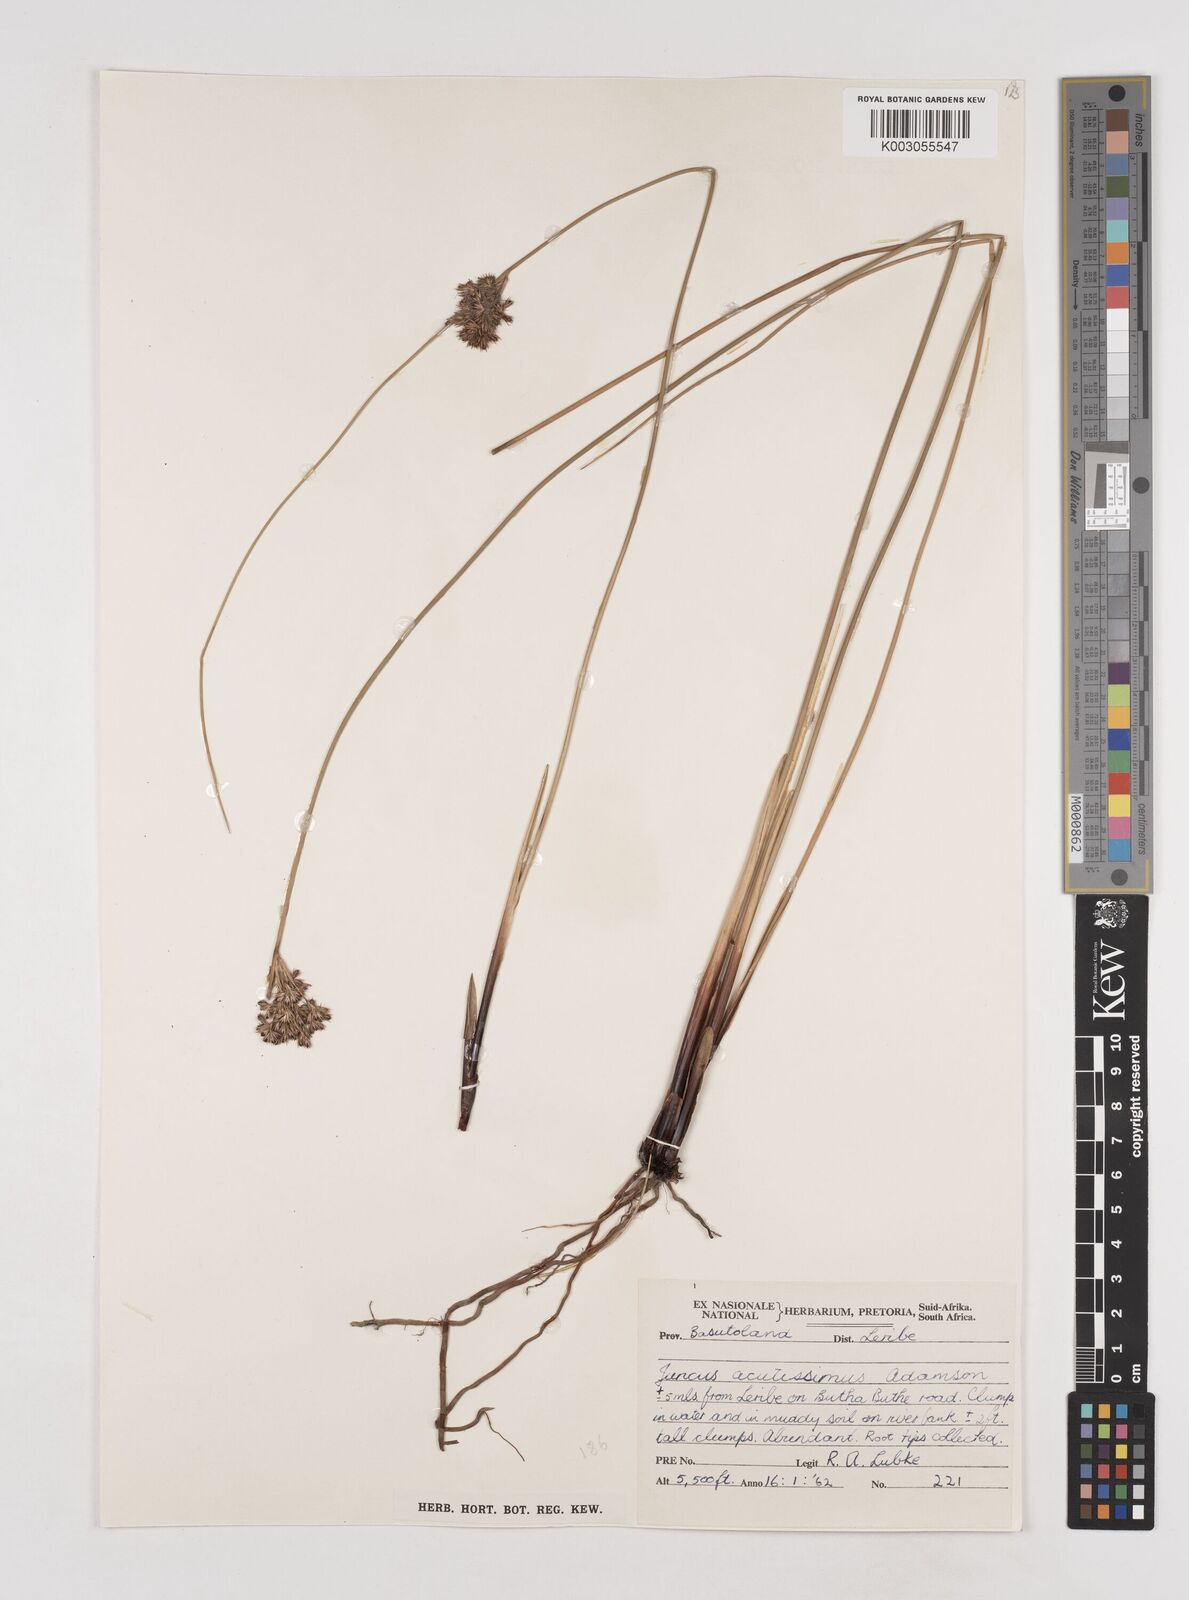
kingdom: Plantae
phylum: Tracheophyta
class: Liliopsida
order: Poales
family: Juncaceae
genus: Juncus
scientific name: Juncus inflexus
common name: Hard rush
